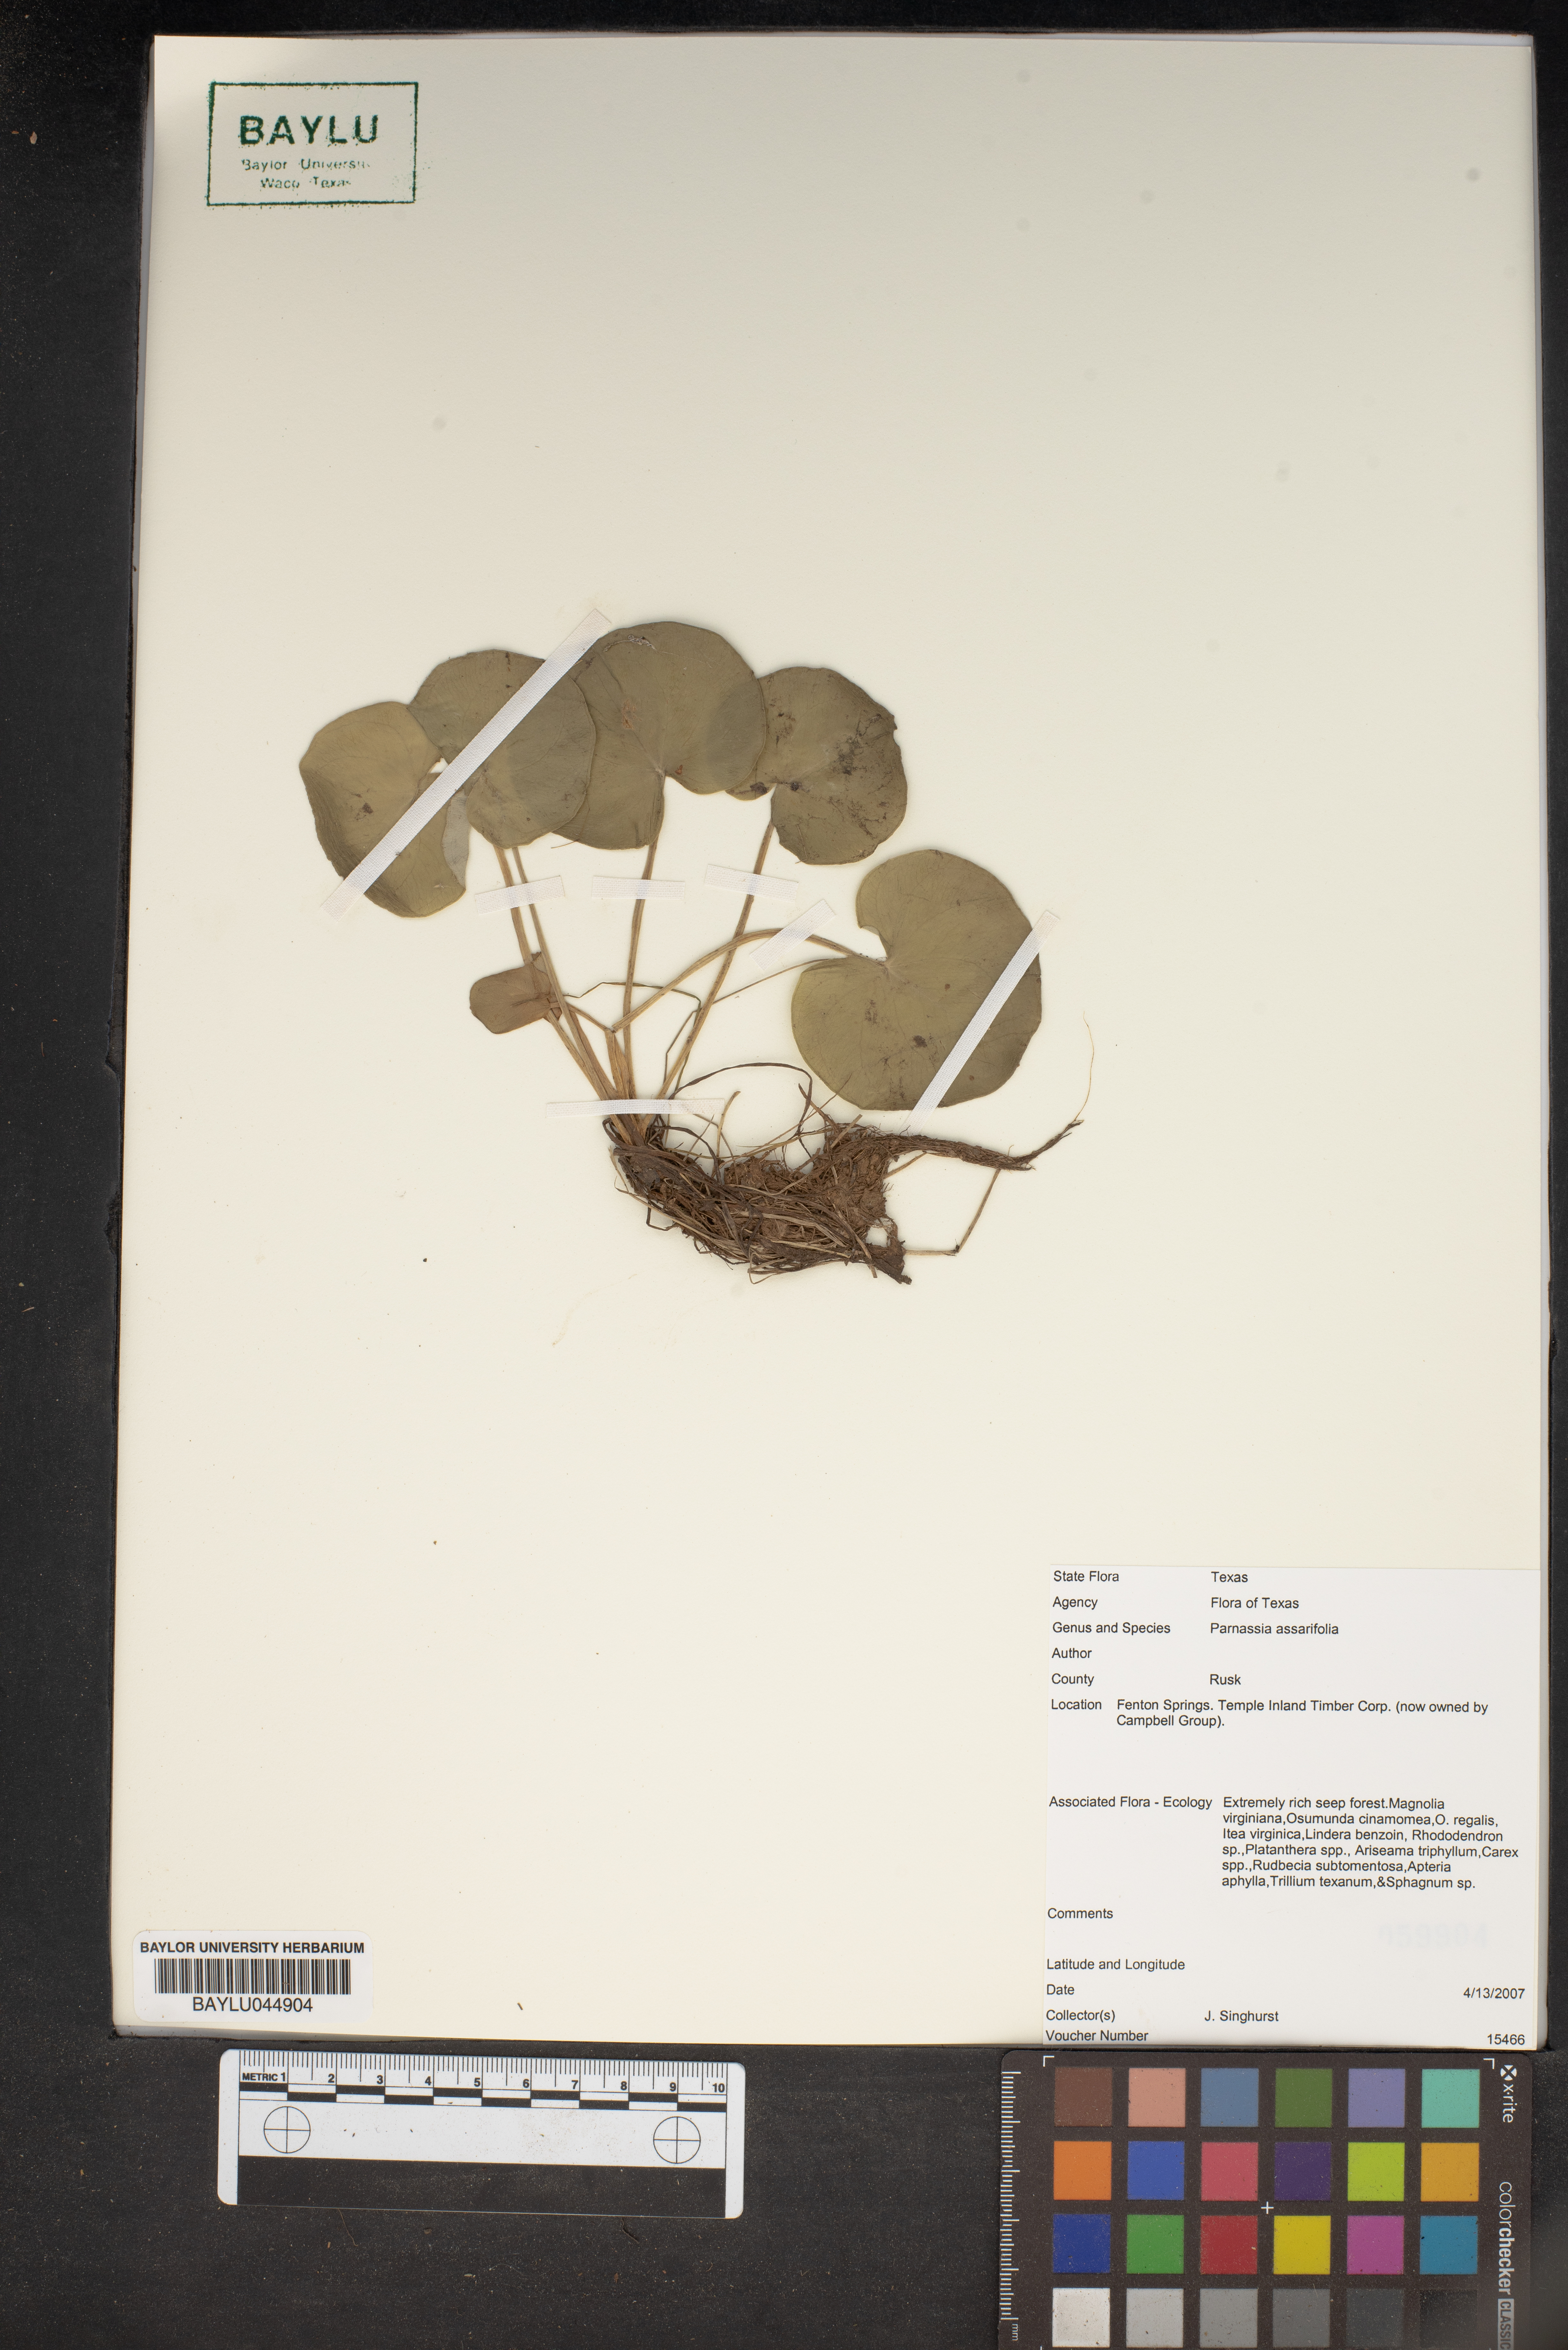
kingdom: Plantae
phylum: Tracheophyta
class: Magnoliopsida
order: Celastrales
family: Parnassiaceae
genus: Parnassia
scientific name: Parnassia asarifolia
